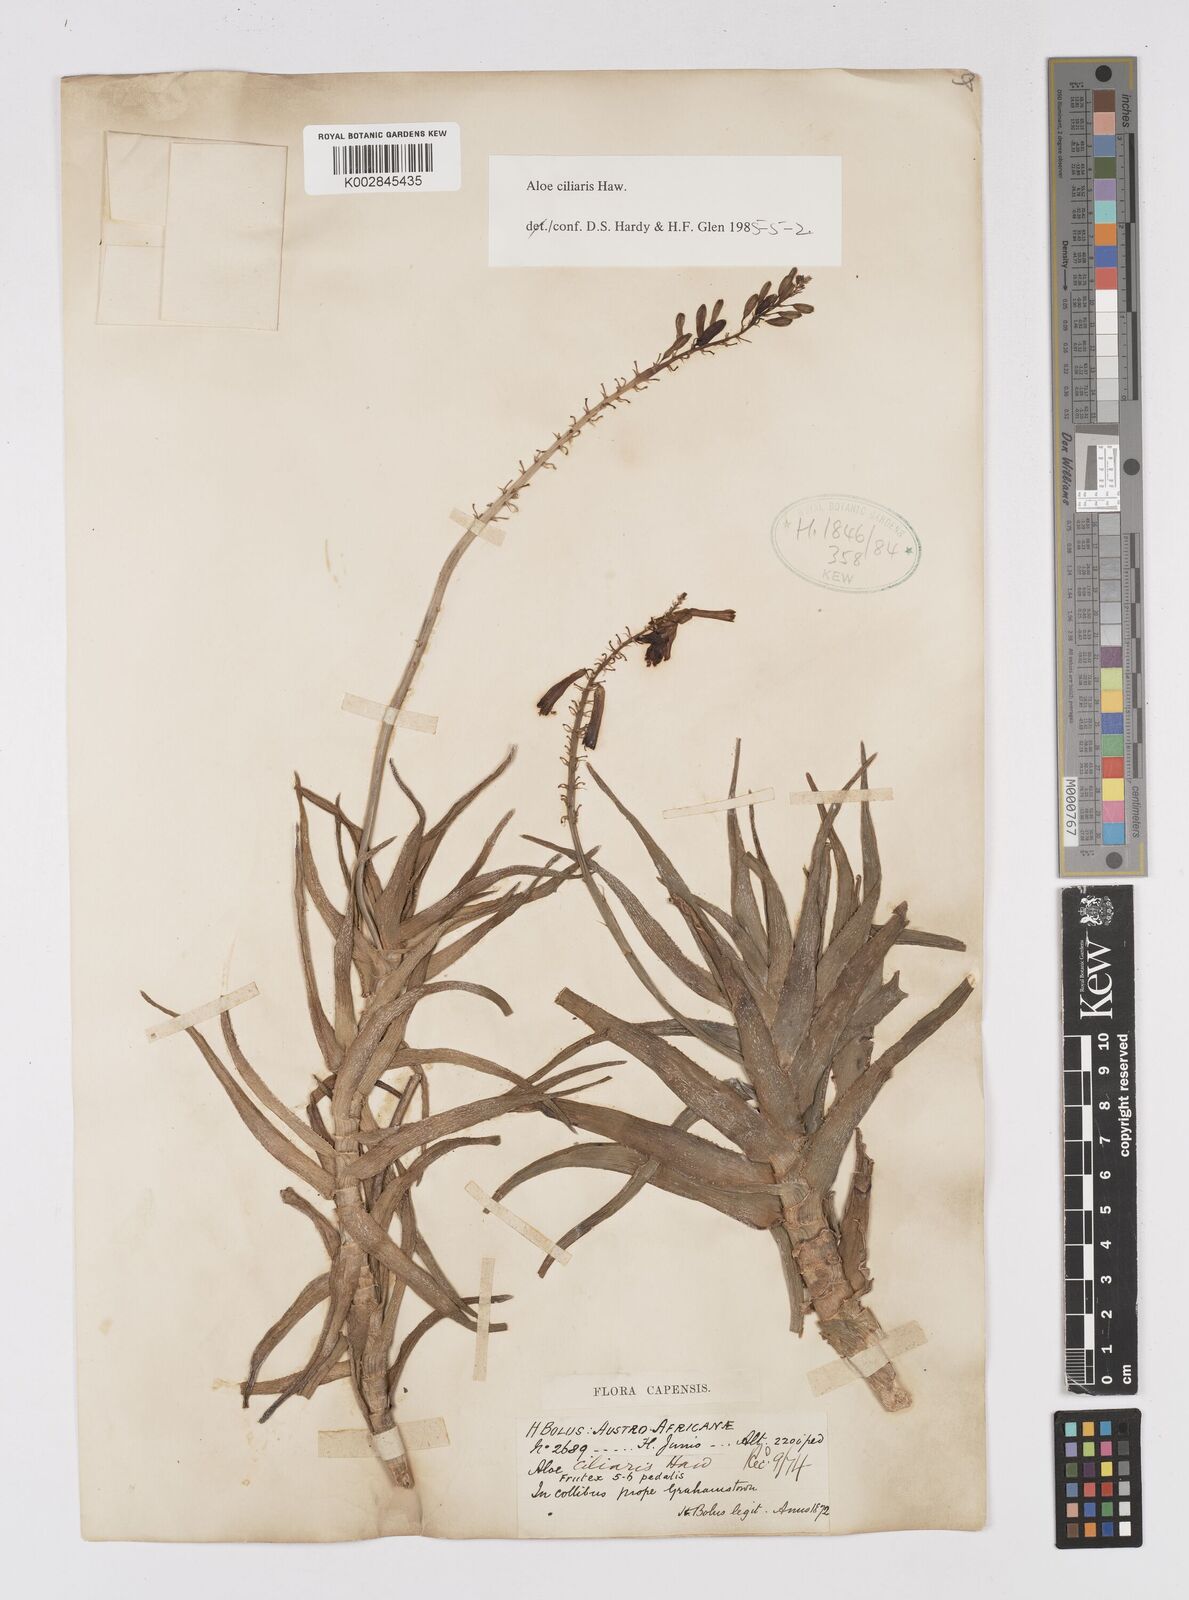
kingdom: Plantae
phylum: Tracheophyta
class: Liliopsida
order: Asparagales
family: Asphodelaceae
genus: Aloiampelos
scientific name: Aloiampelos ciliaris
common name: Climbing aloe
